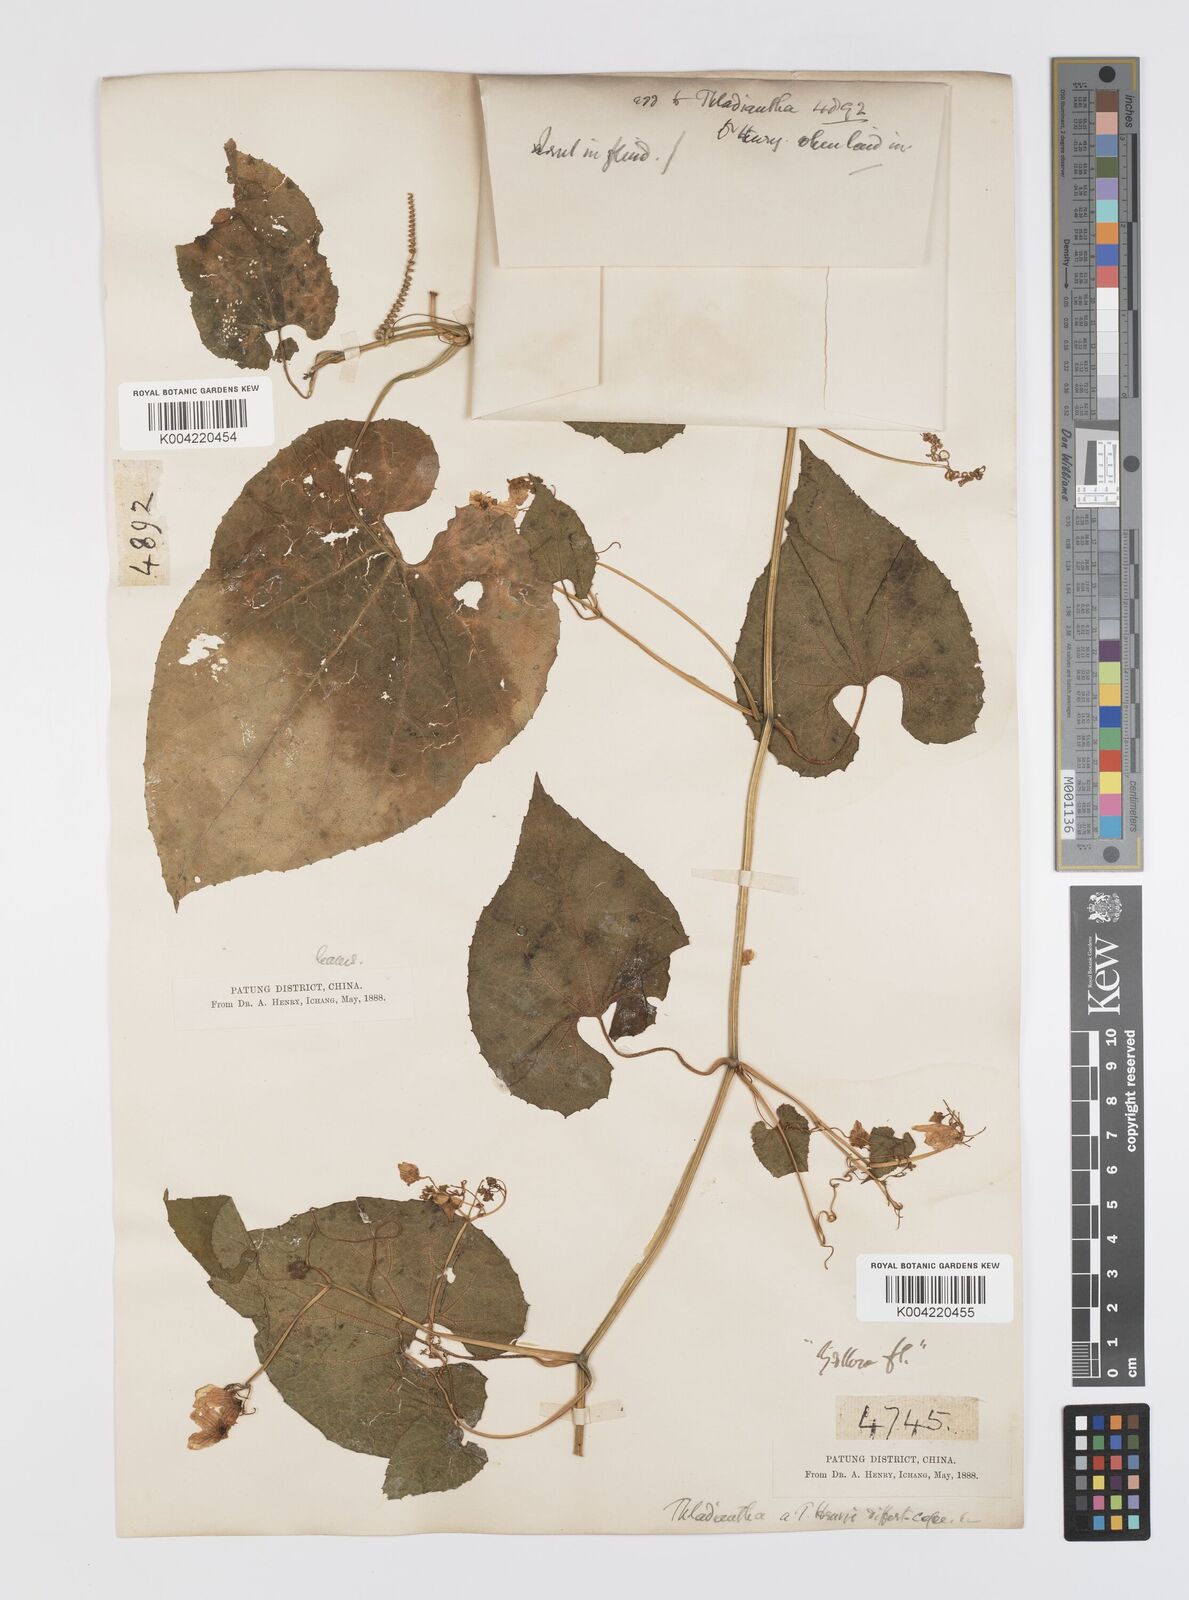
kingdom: Plantae
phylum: Tracheophyta
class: Magnoliopsida
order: Cucurbitales
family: Cucurbitaceae
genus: Thladiantha
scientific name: Thladiantha montana
